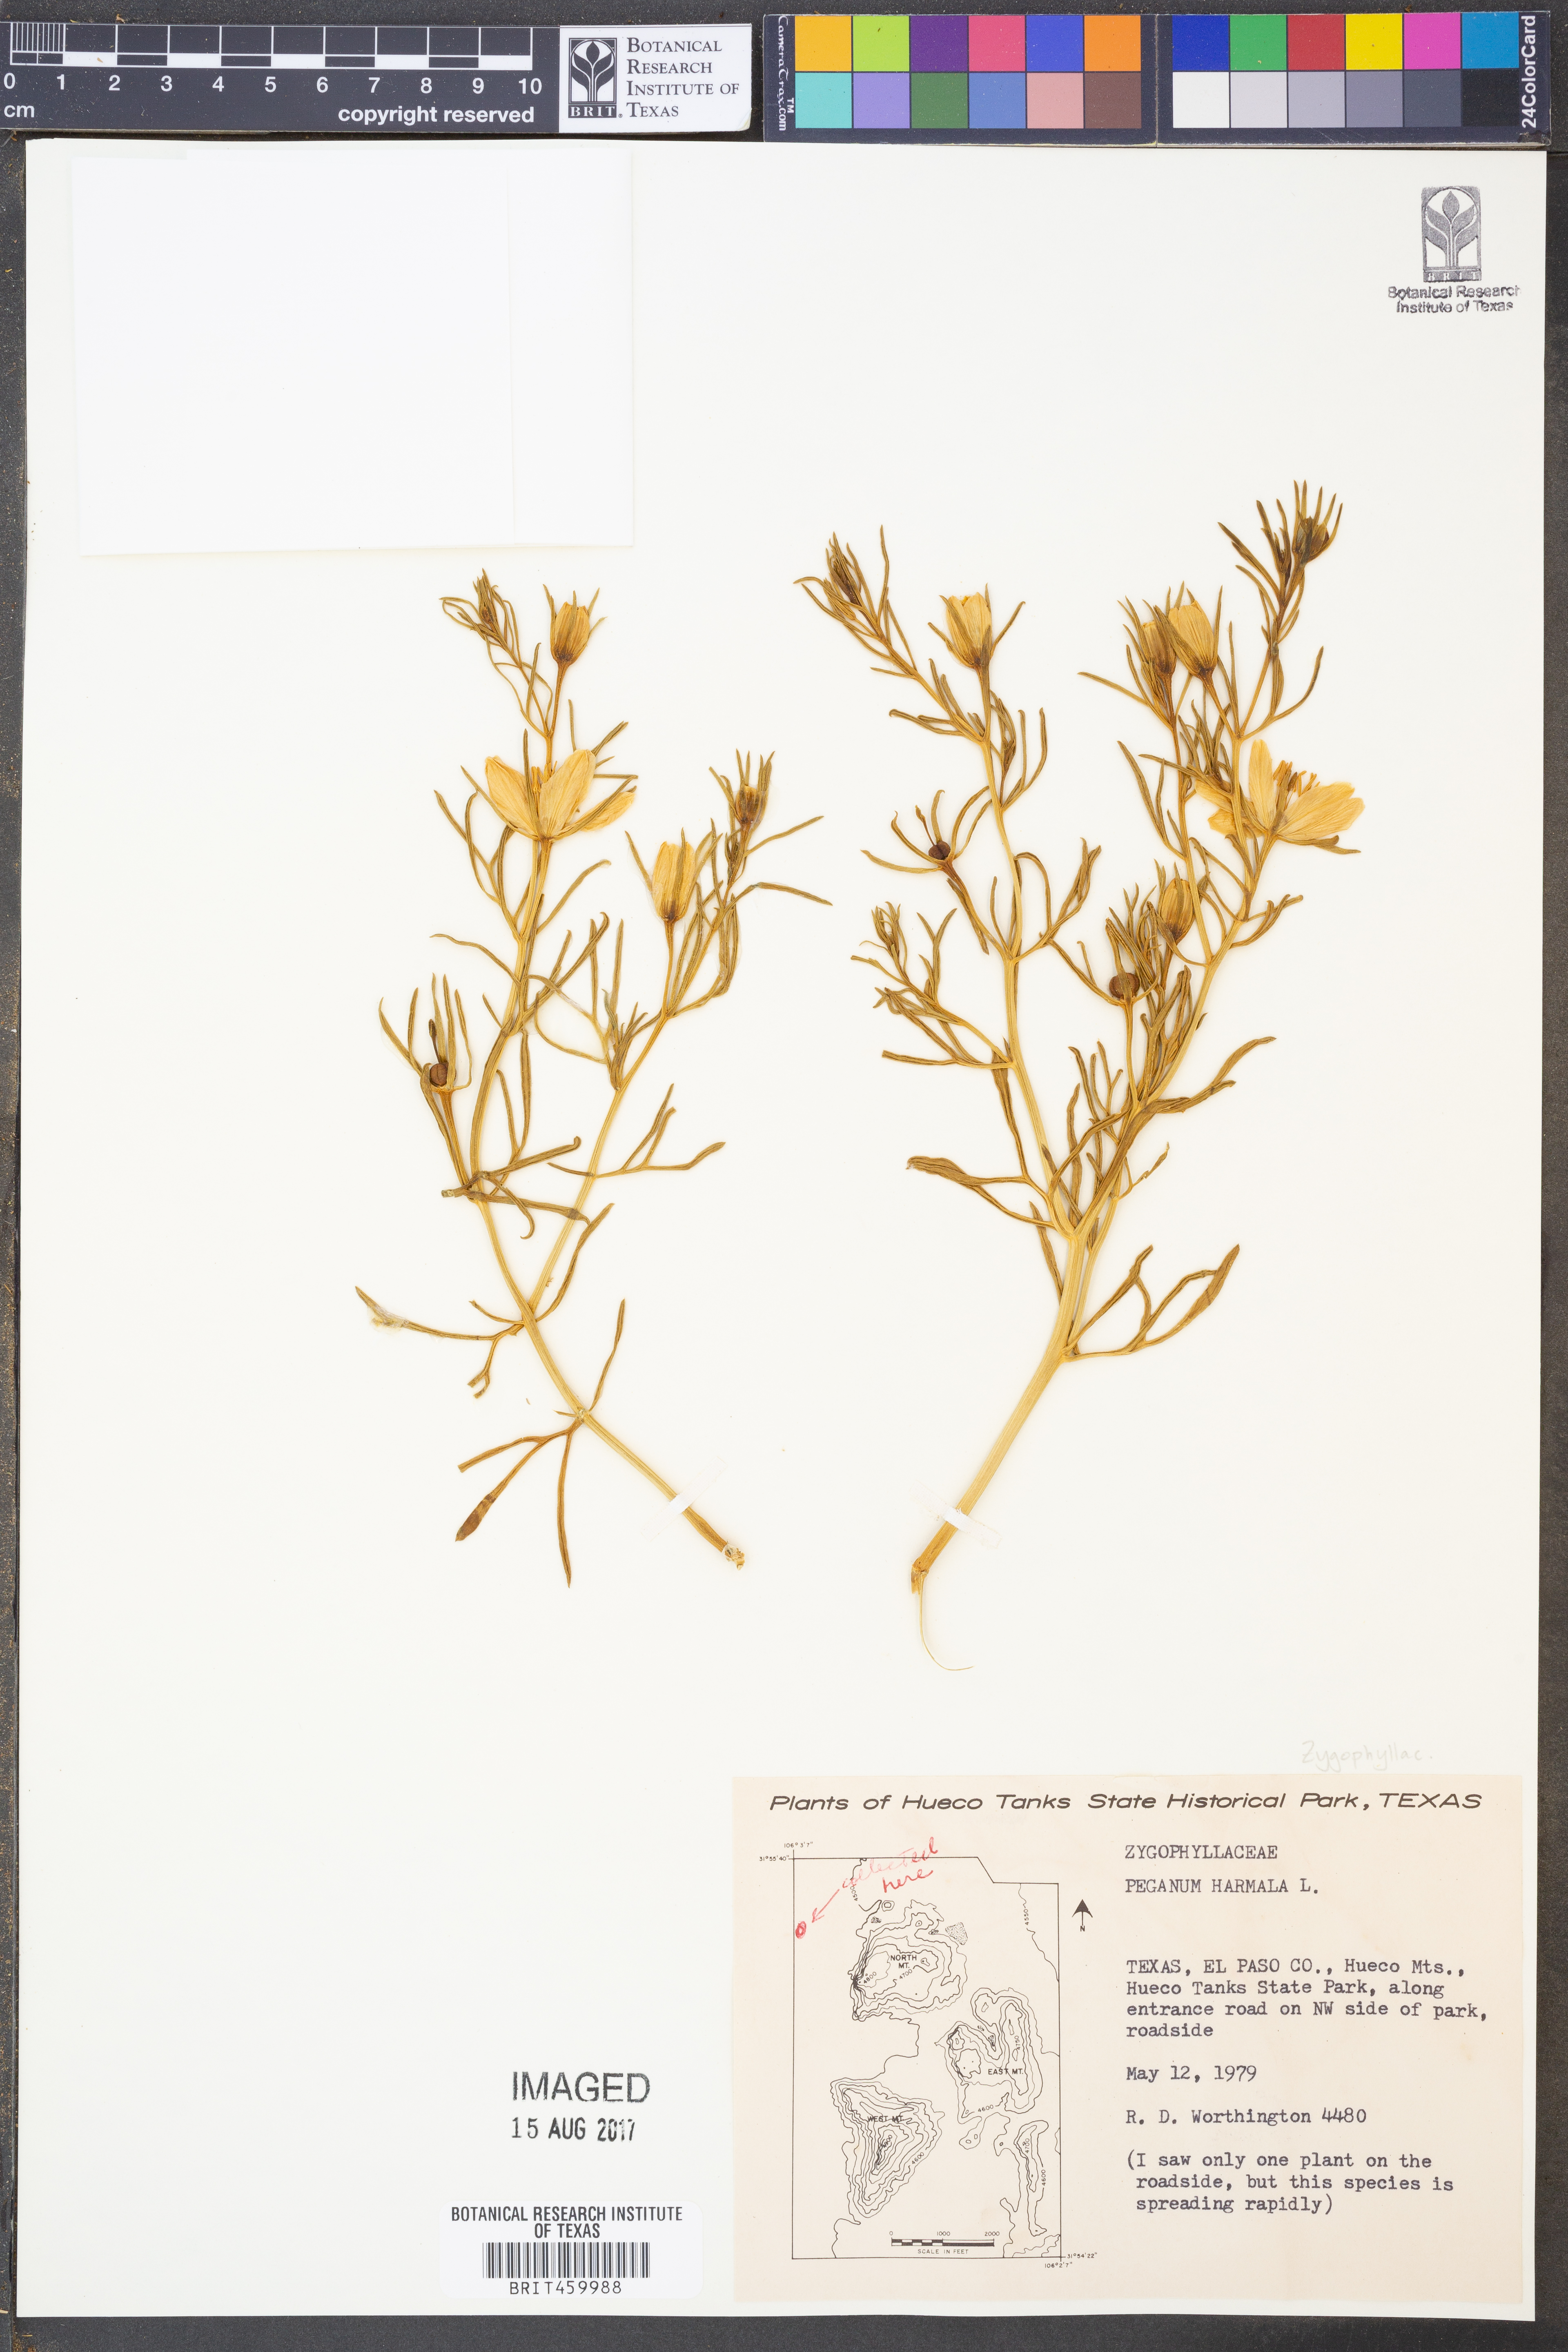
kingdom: Plantae
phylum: Tracheophyta
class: Magnoliopsida
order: Sapindales
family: Tetradiclidaceae
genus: Peganum
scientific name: Peganum harmala
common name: Harmal peganum
